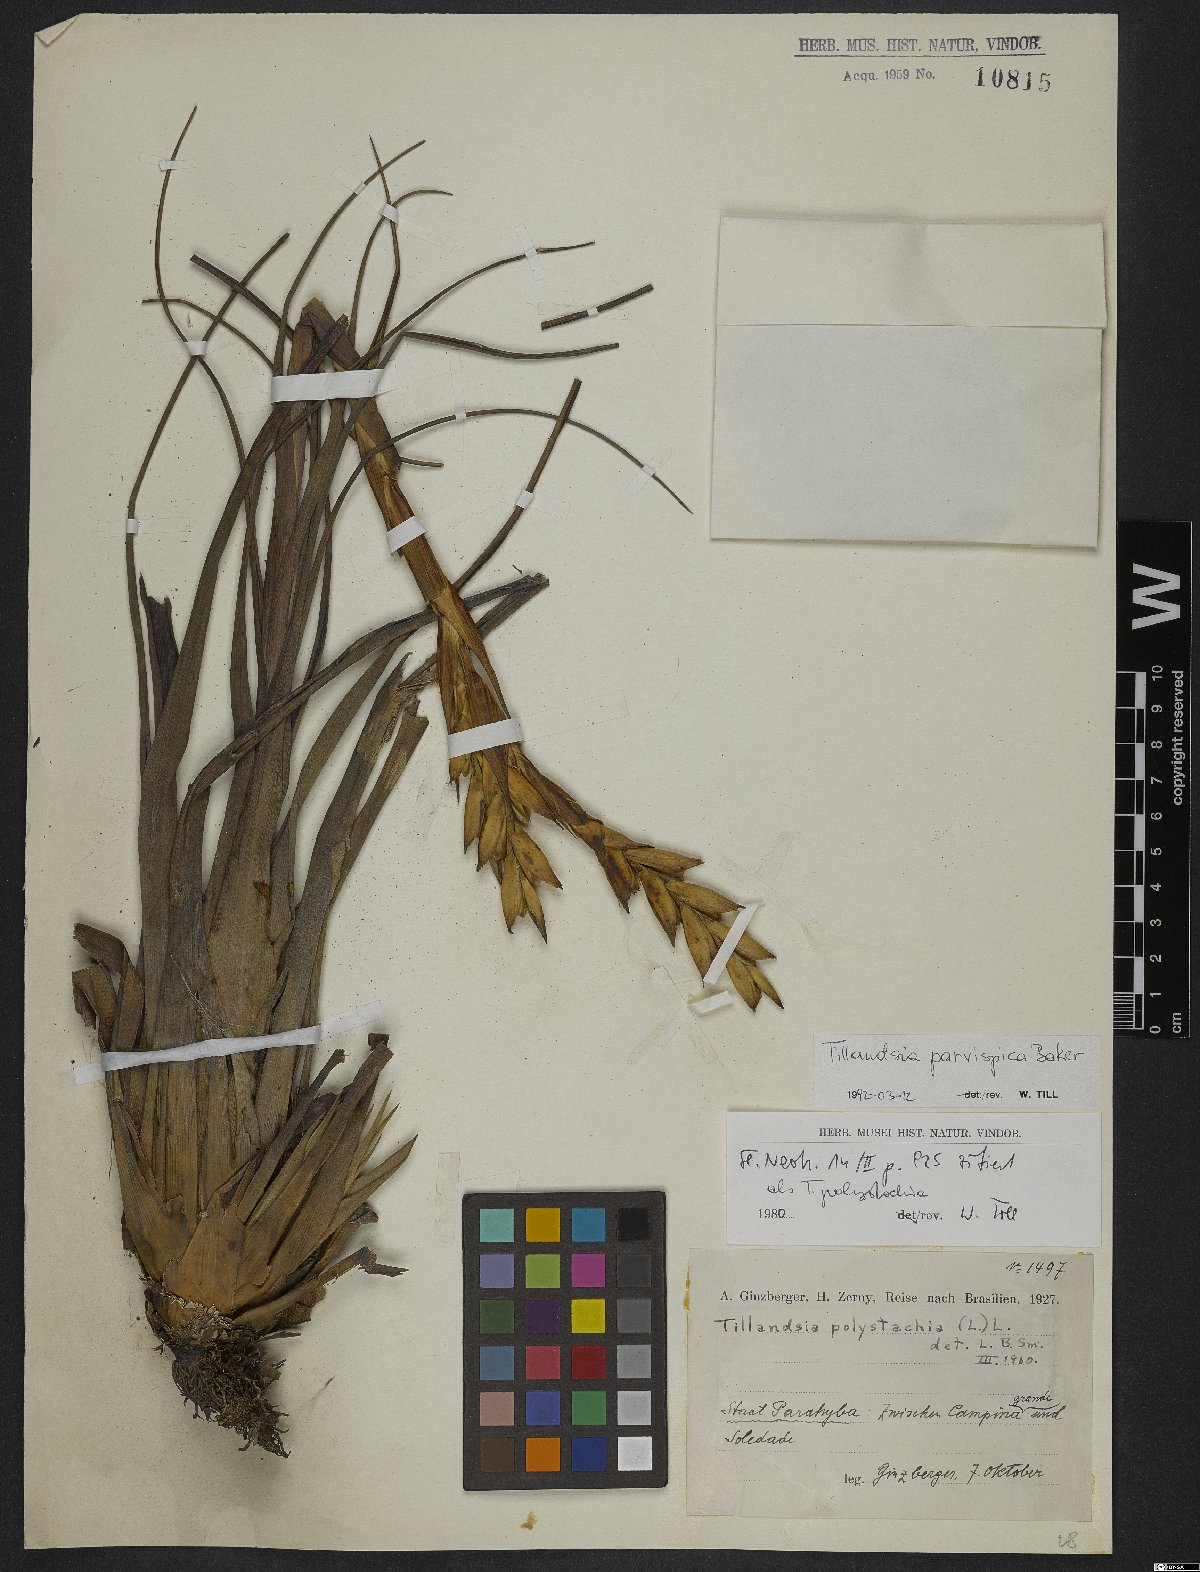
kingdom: Plantae
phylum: Tracheophyta
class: Liliopsida
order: Poales
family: Bromeliaceae
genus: Tillandsia
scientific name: Tillandsia parvispica
